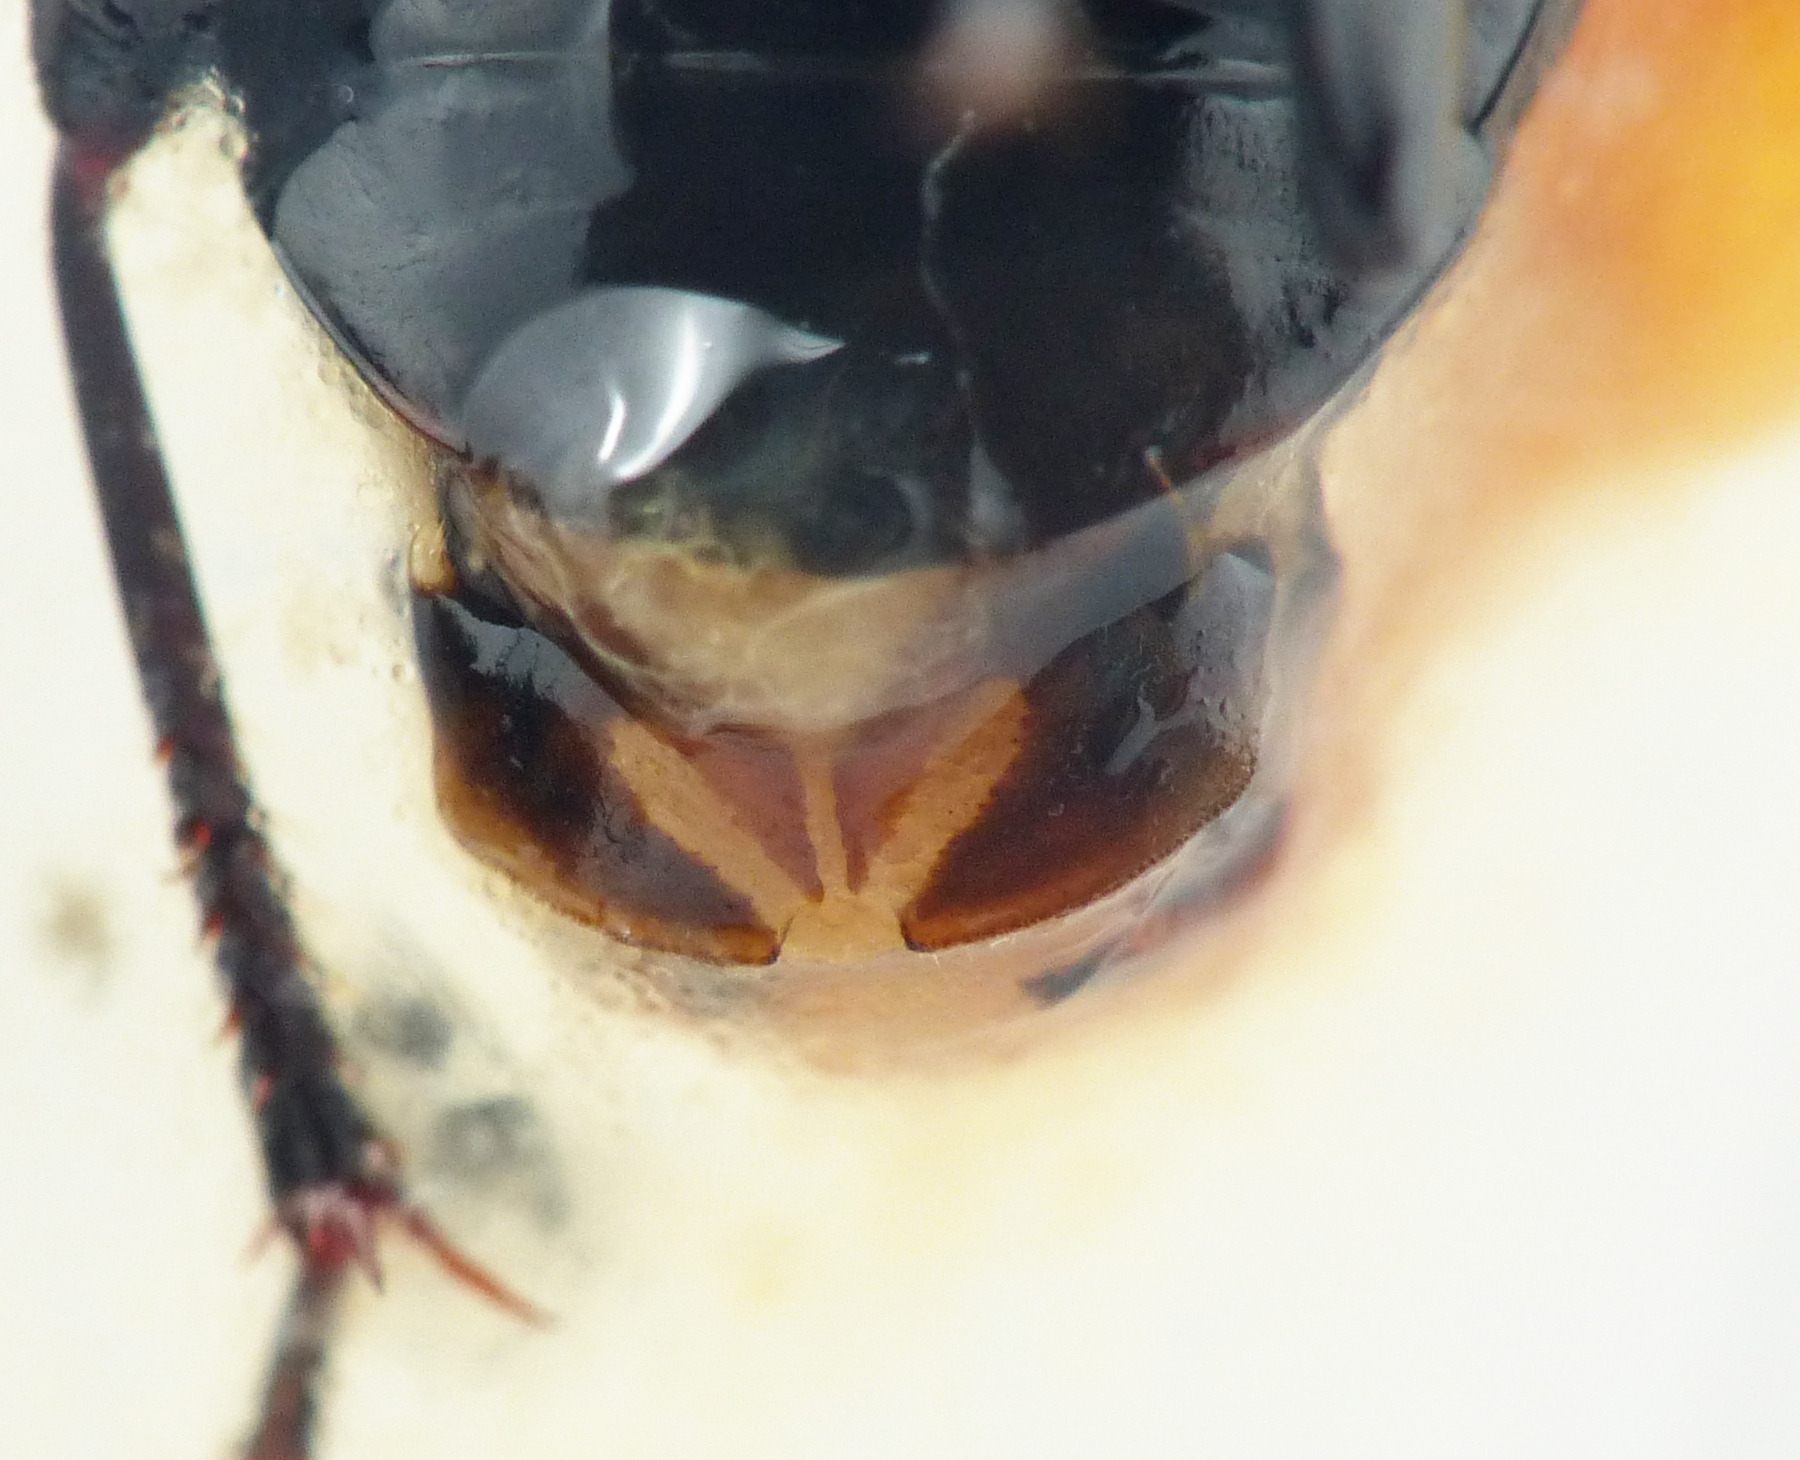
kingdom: Animalia
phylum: Arthropoda
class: Insecta
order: Coleoptera
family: Carabidae
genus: Pterostichus
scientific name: Pterostichus nigrita
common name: Kærjordløber
